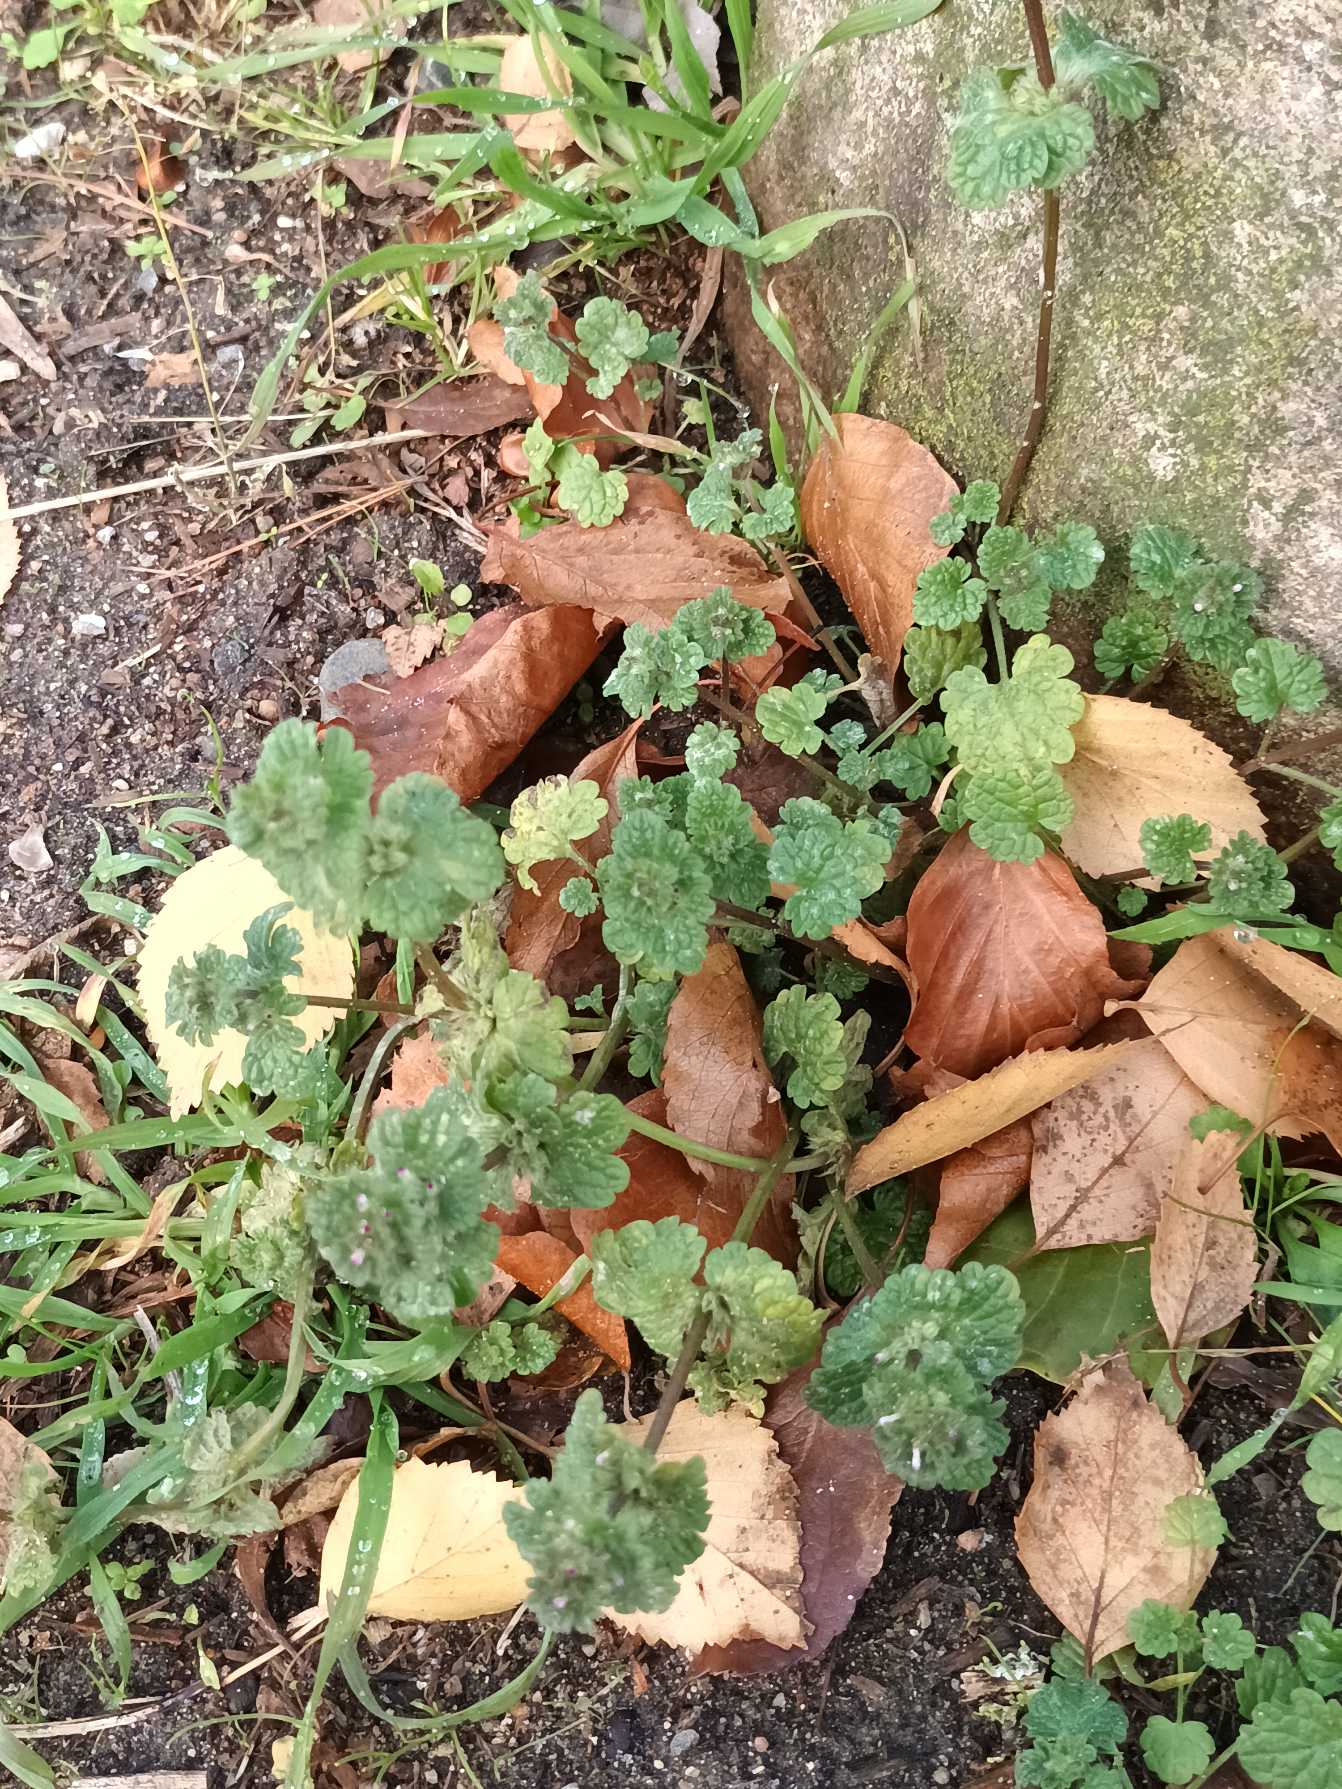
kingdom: Plantae
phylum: Tracheophyta
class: Magnoliopsida
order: Lamiales
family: Lamiaceae
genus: Lamium
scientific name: Lamium amplexicaule
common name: Liden tvetand
